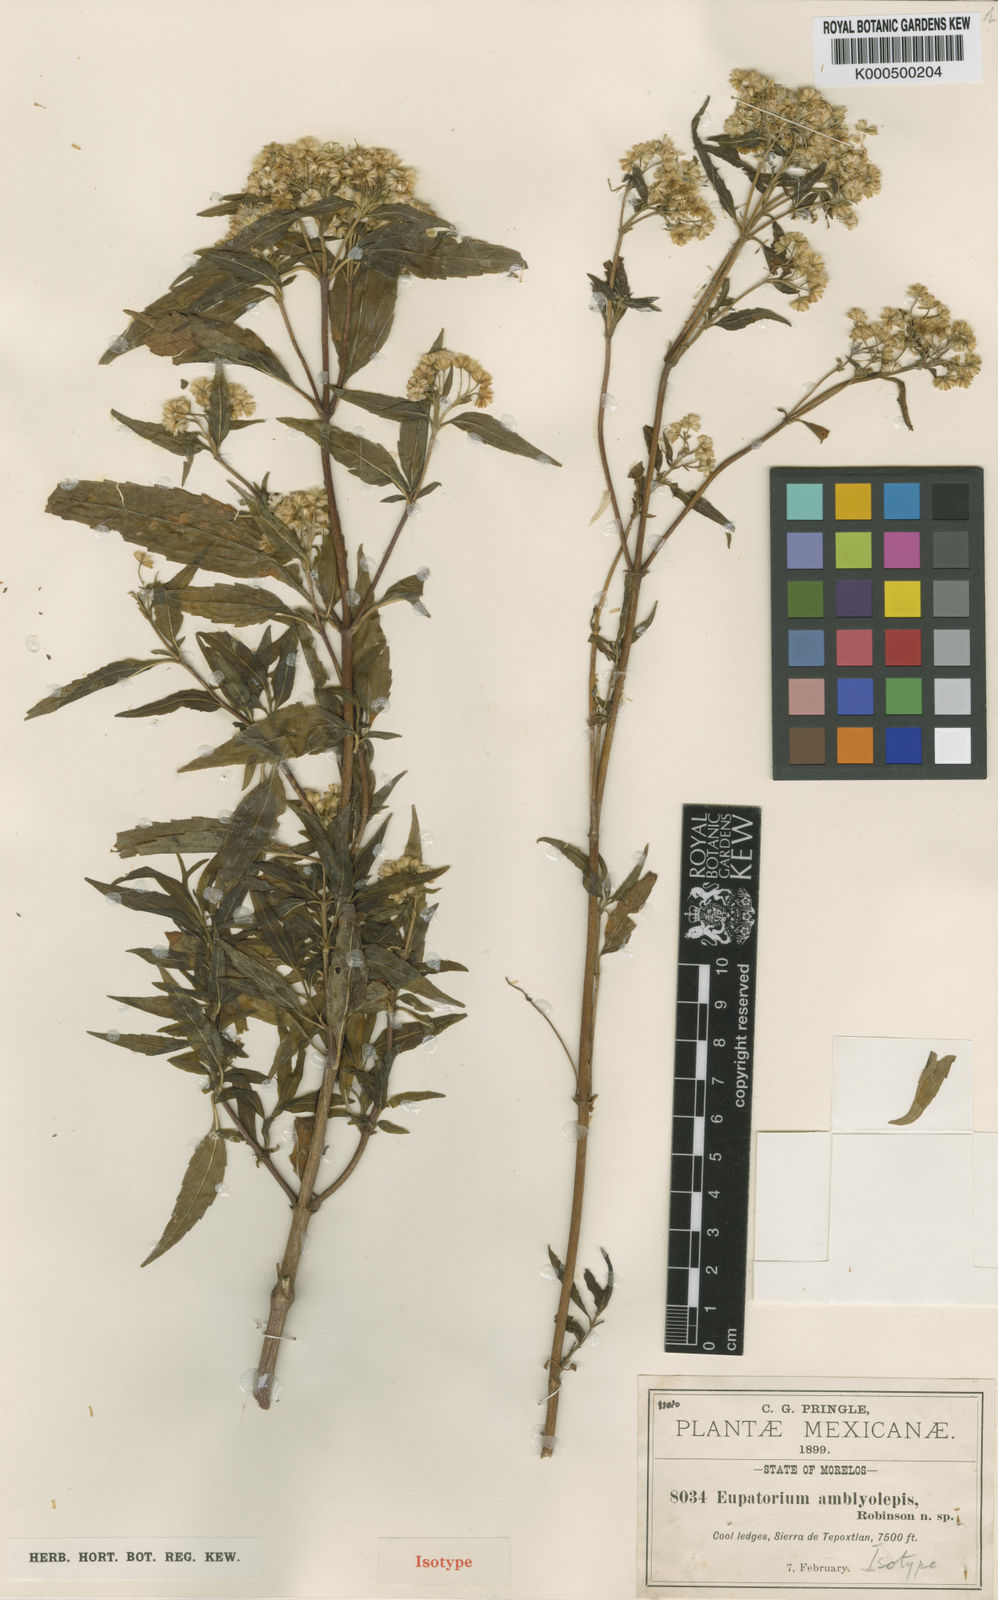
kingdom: Plantae
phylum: Tracheophyta
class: Magnoliopsida
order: Asterales
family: Asteraceae
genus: Ageratina
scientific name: Ageratina amblyolepis
